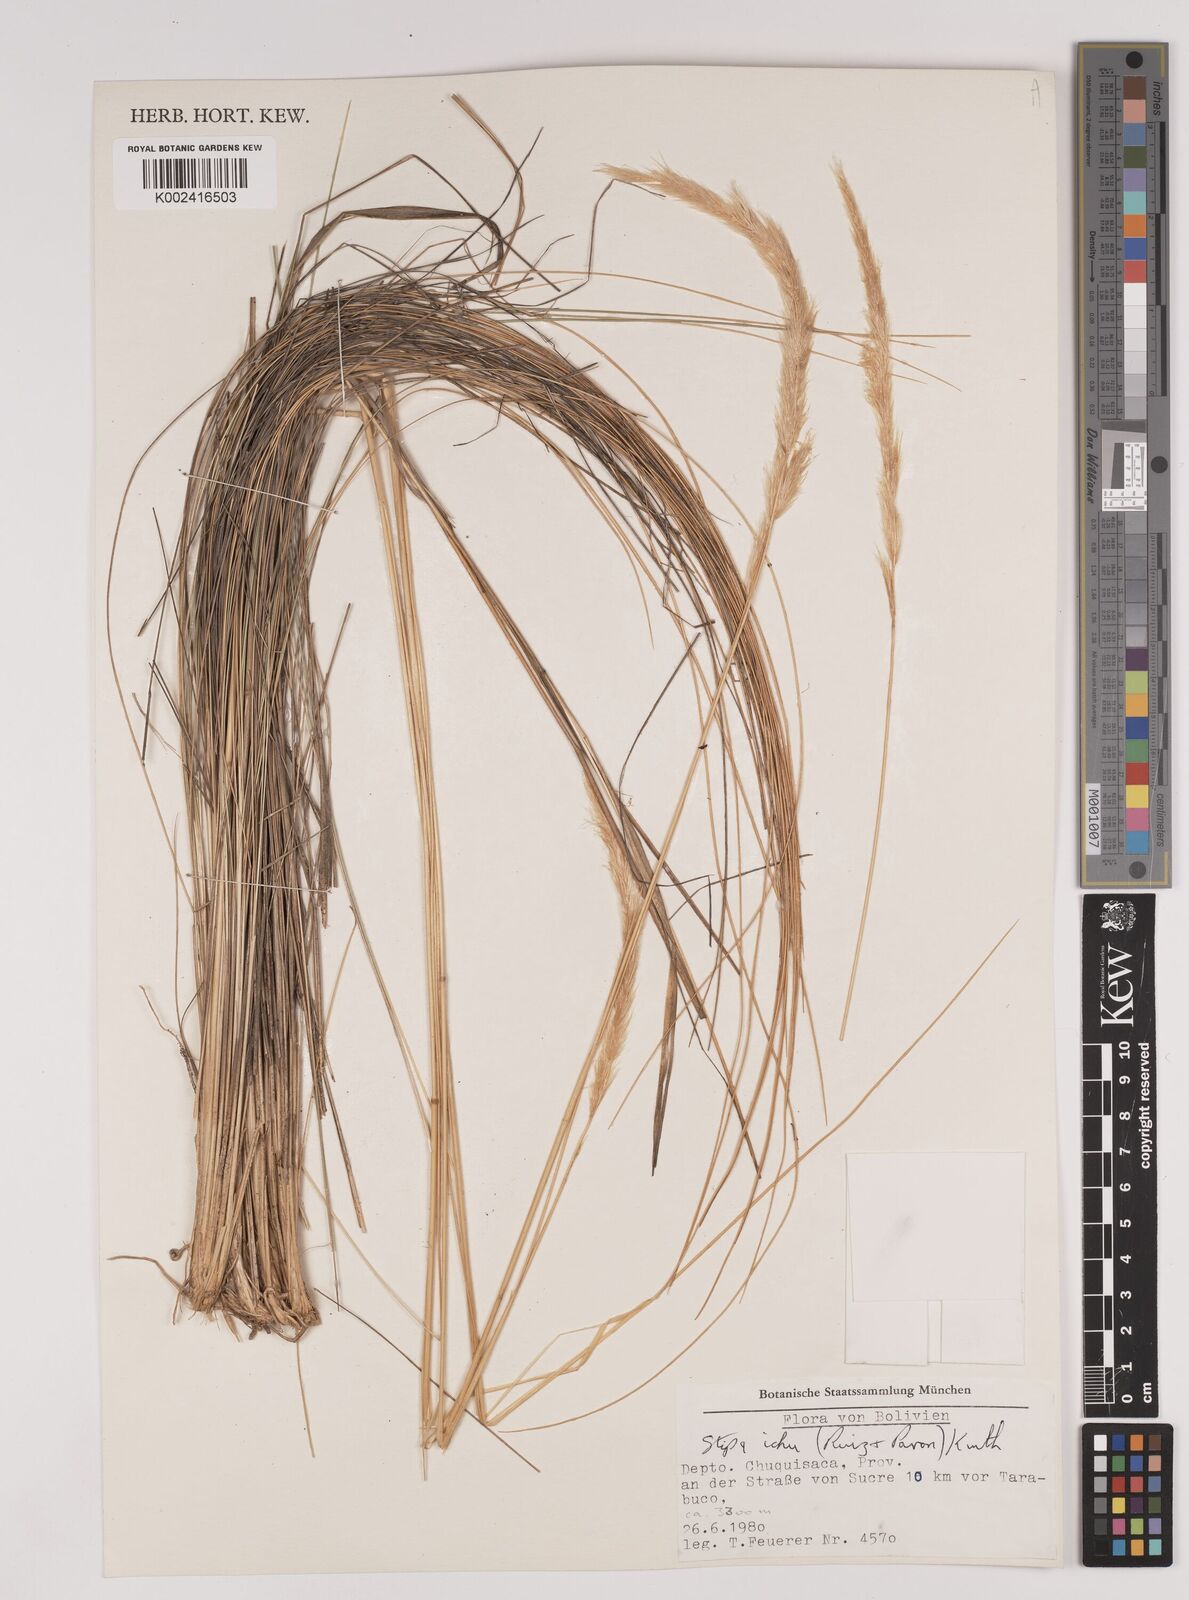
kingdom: Plantae
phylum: Tracheophyta
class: Liliopsida
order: Poales
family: Poaceae
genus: Jarava
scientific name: Jarava ichu
